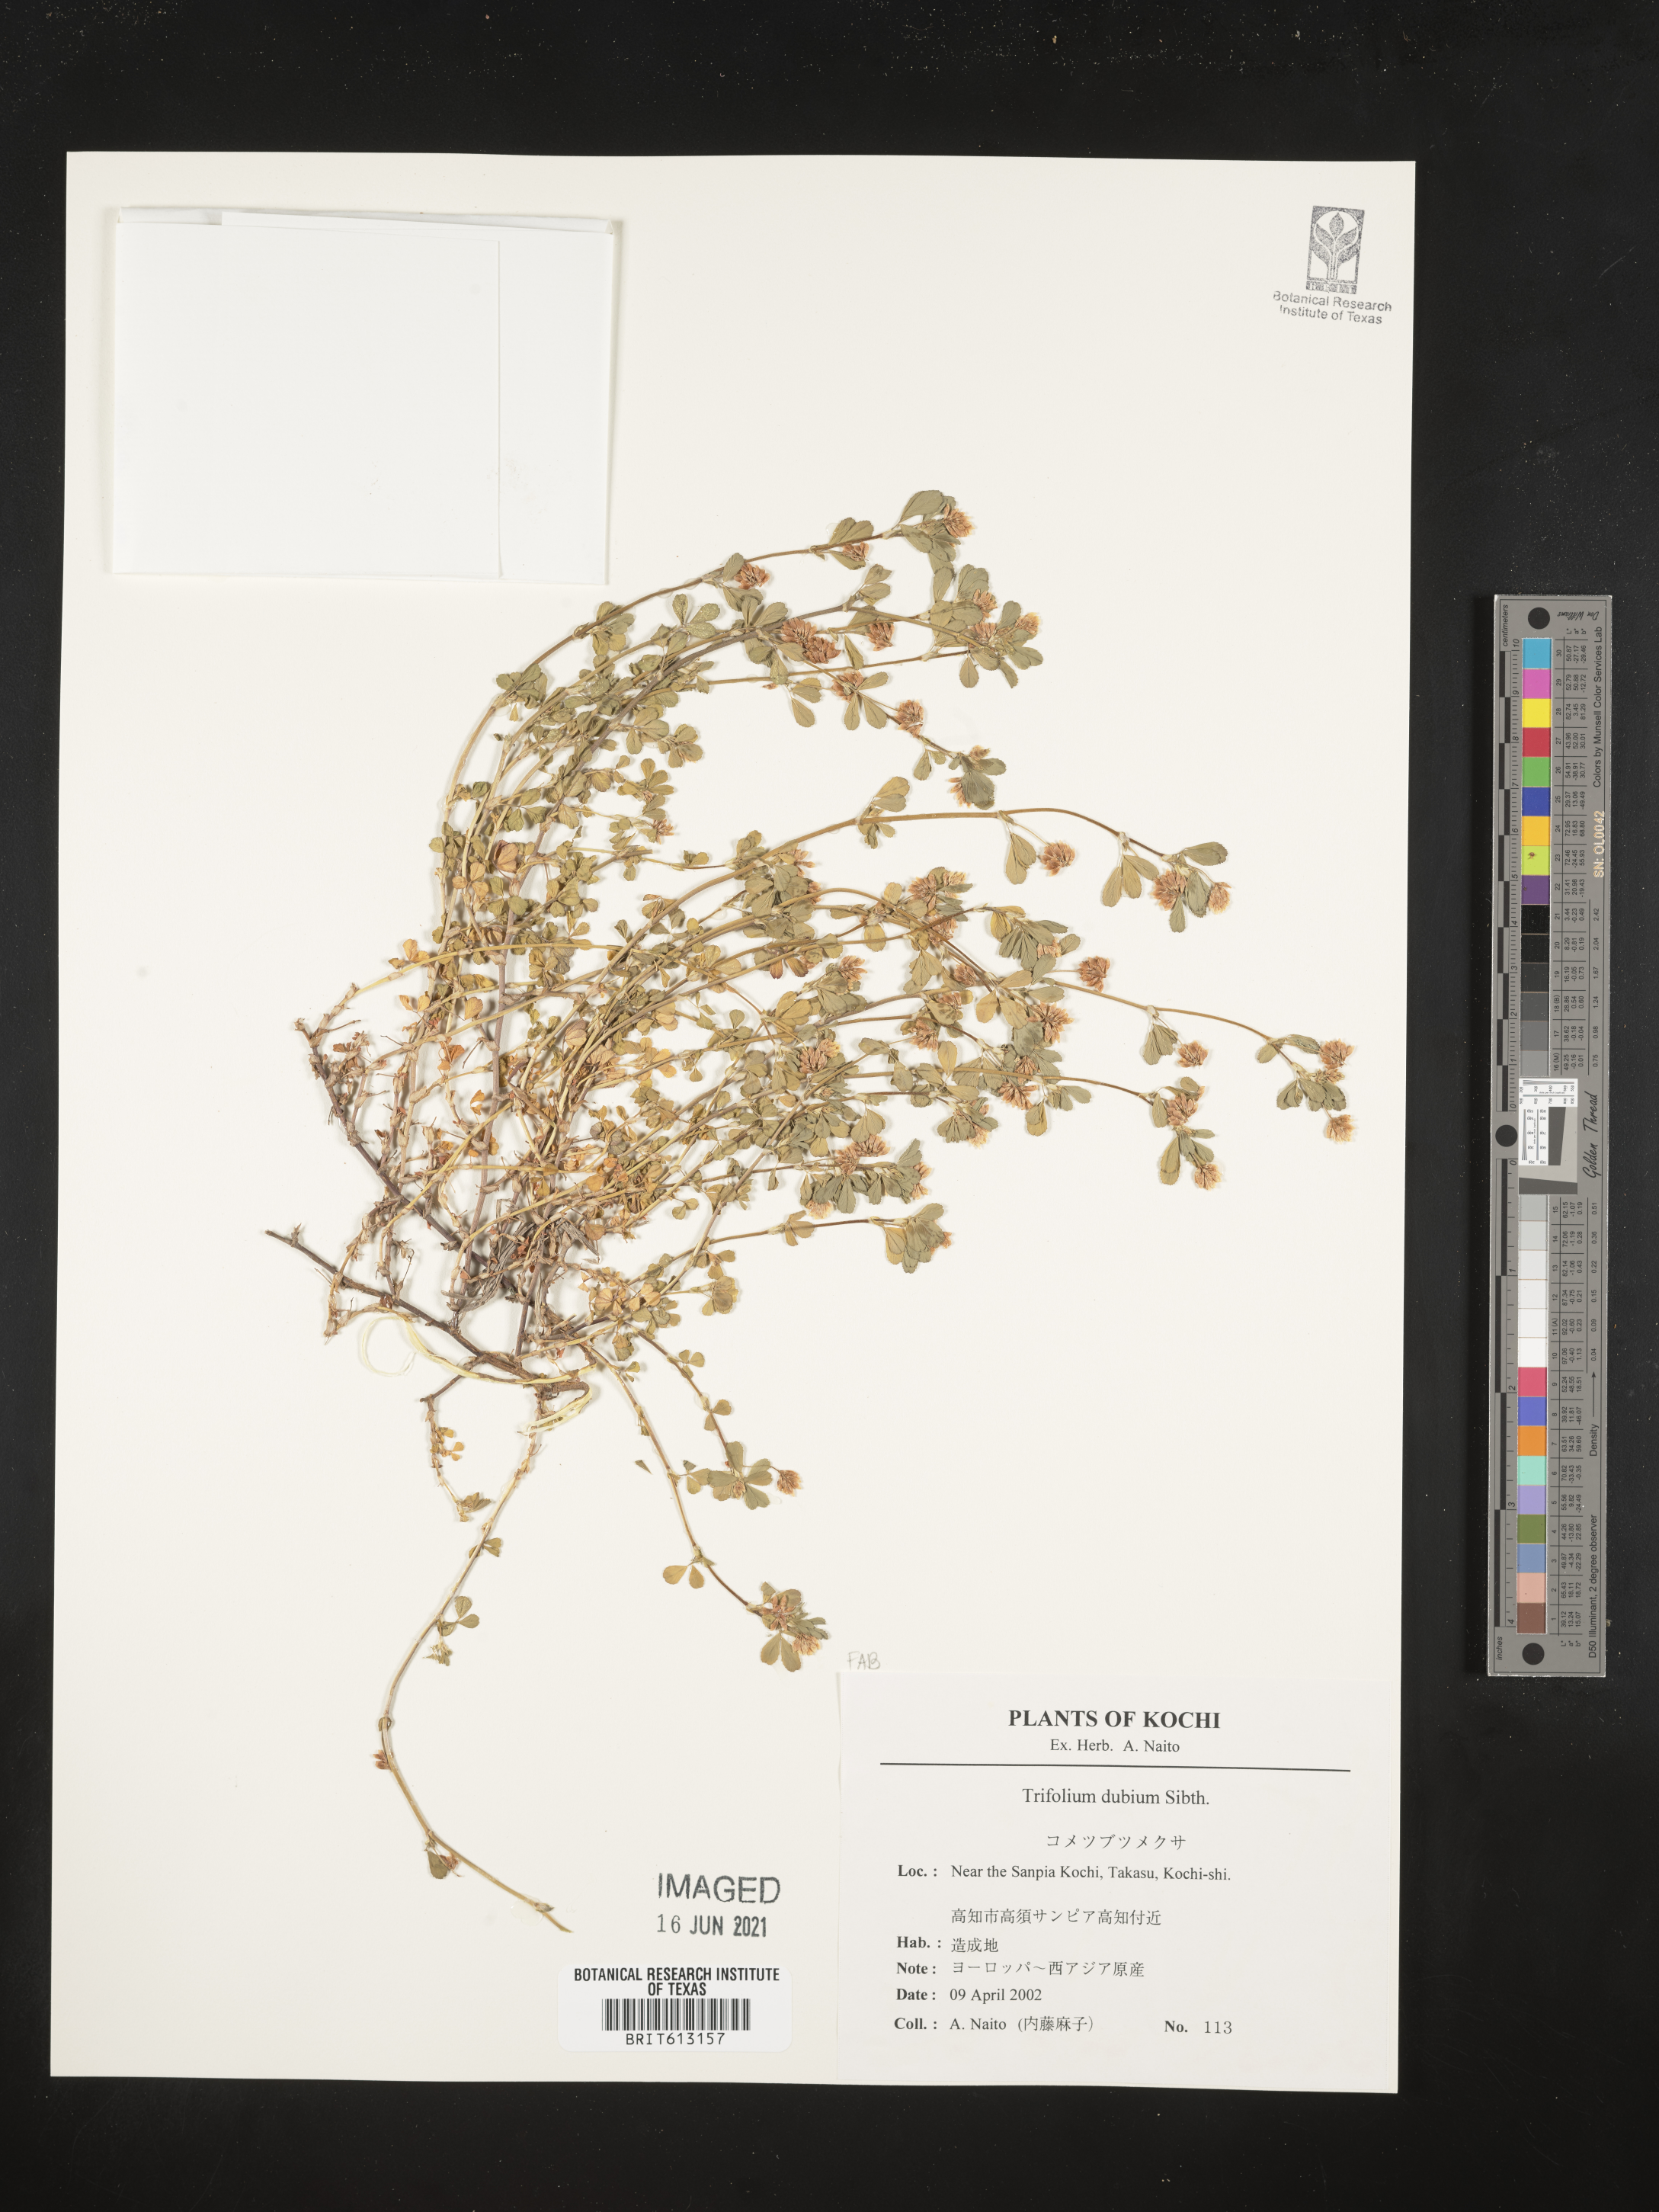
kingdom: Plantae
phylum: Tracheophyta
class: Magnoliopsida
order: Fabales
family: Fabaceae
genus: Trifolium
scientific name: Trifolium dubium
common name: Suckling clover
